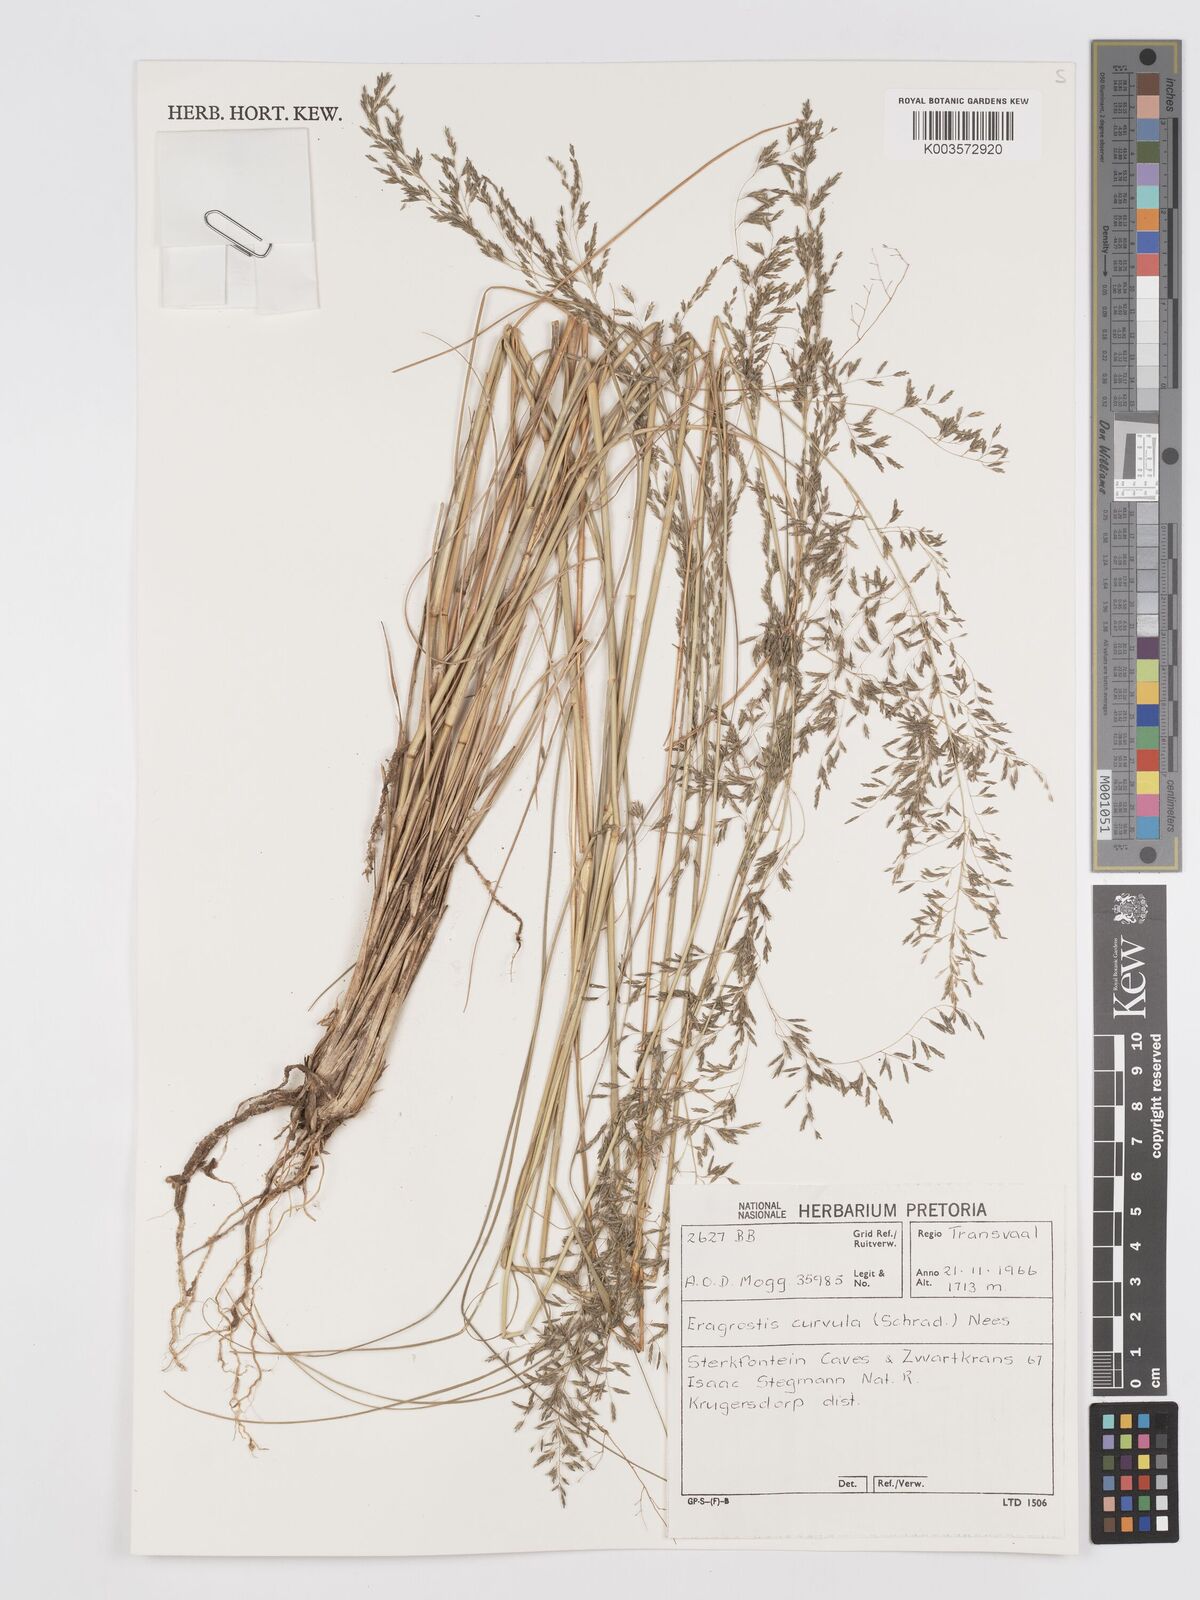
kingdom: Plantae
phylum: Tracheophyta
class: Liliopsida
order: Poales
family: Poaceae
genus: Eragrostis
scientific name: Eragrostis curvula
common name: African love-grass
